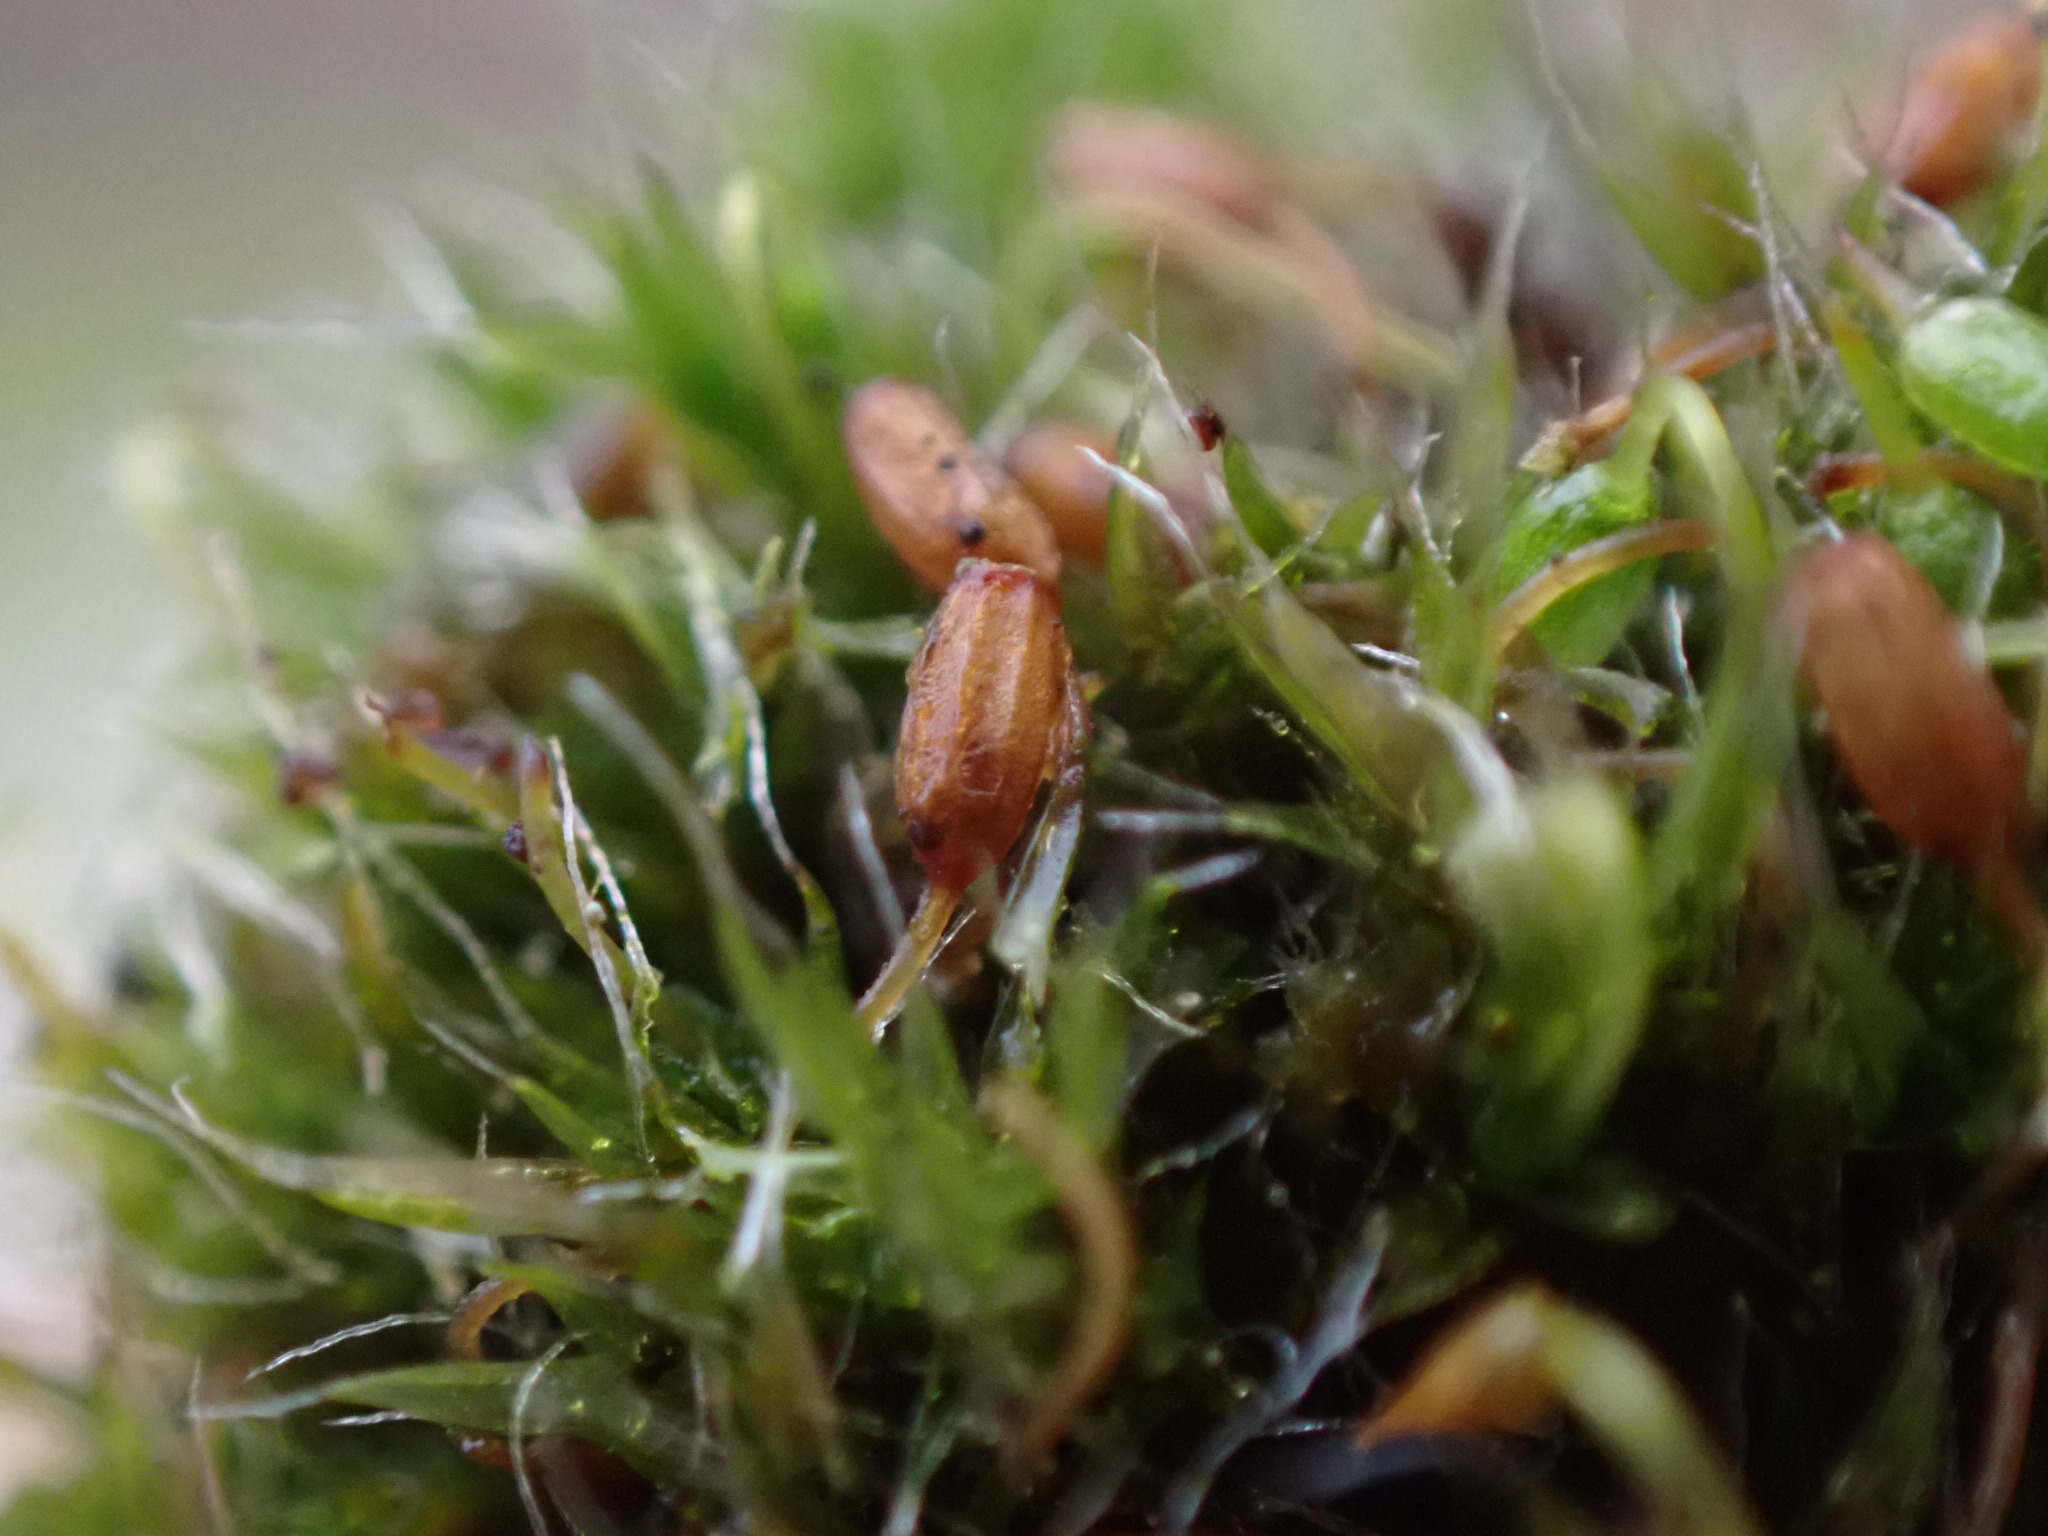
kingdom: Plantae
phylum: Bryophyta
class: Bryopsida
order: Grimmiales
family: Grimmiaceae
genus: Grimmia
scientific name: Grimmia pulvinata
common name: Pude-gråmos
